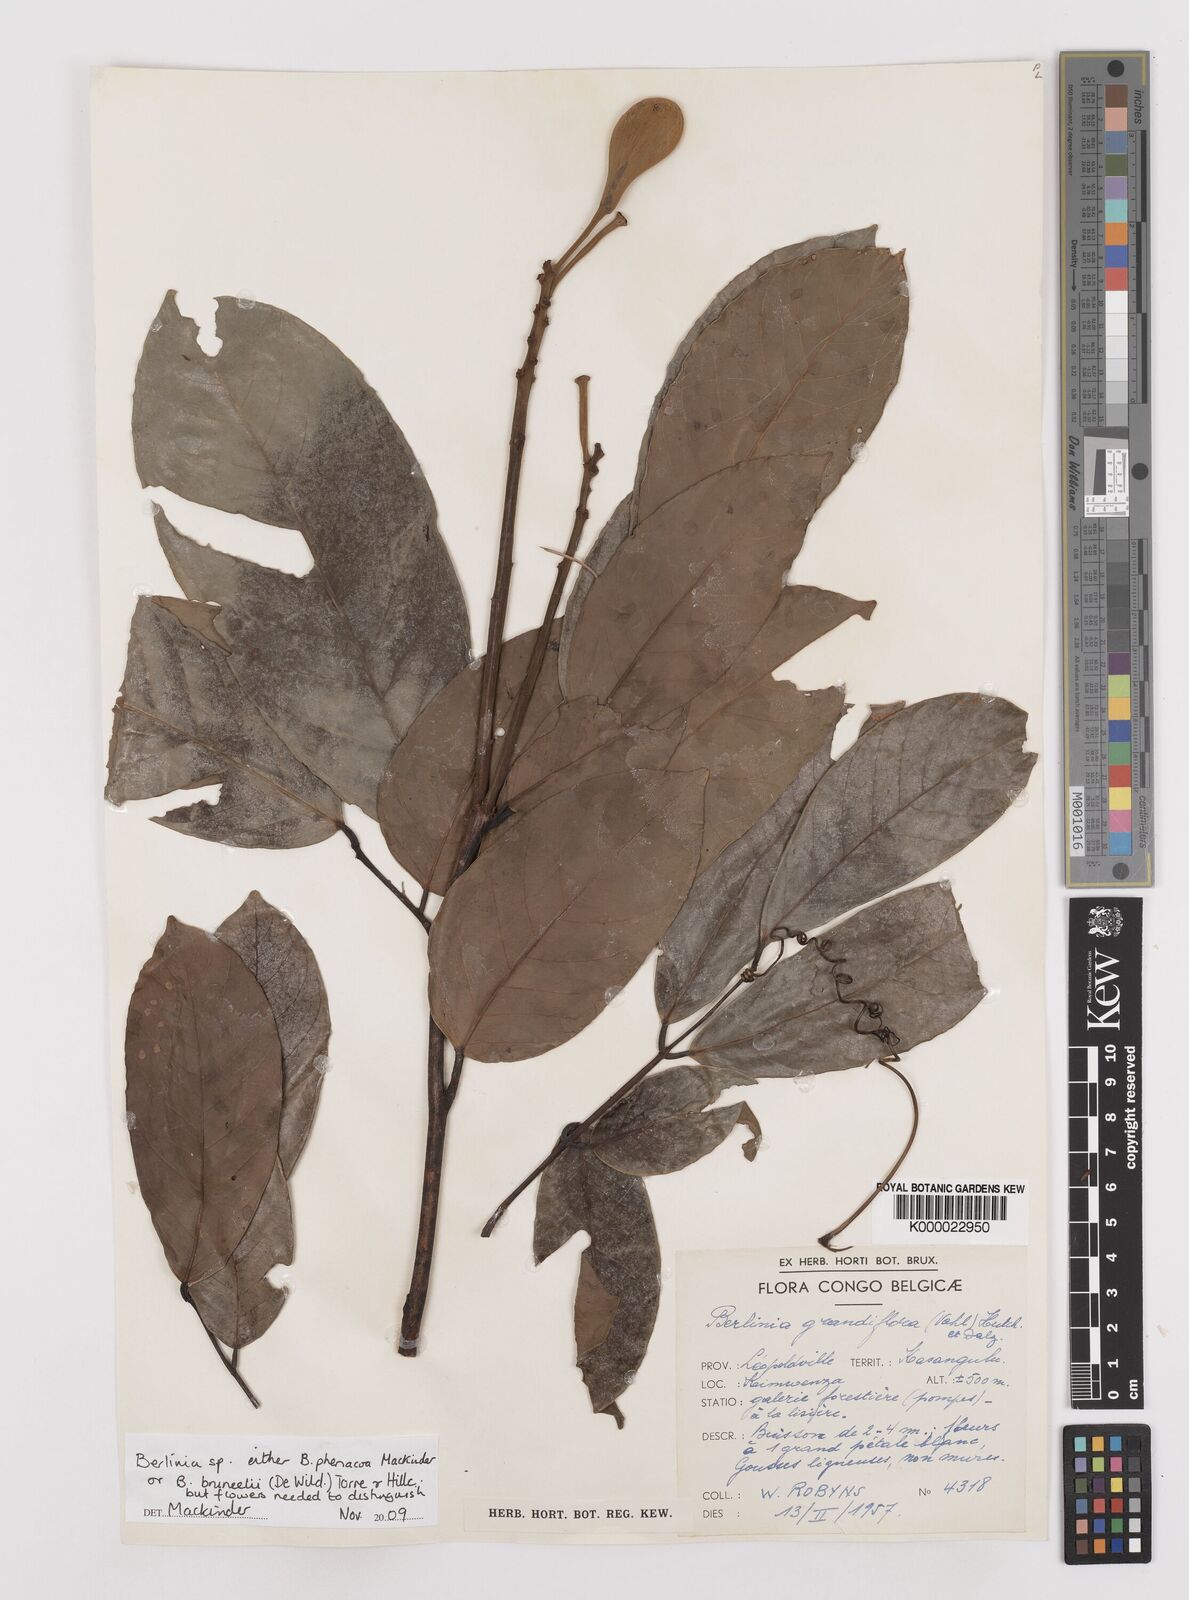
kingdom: Plantae
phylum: Tracheophyta
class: Magnoliopsida
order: Fabales
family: Fabaceae
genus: Berlinia
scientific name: Berlinia bruneelii
